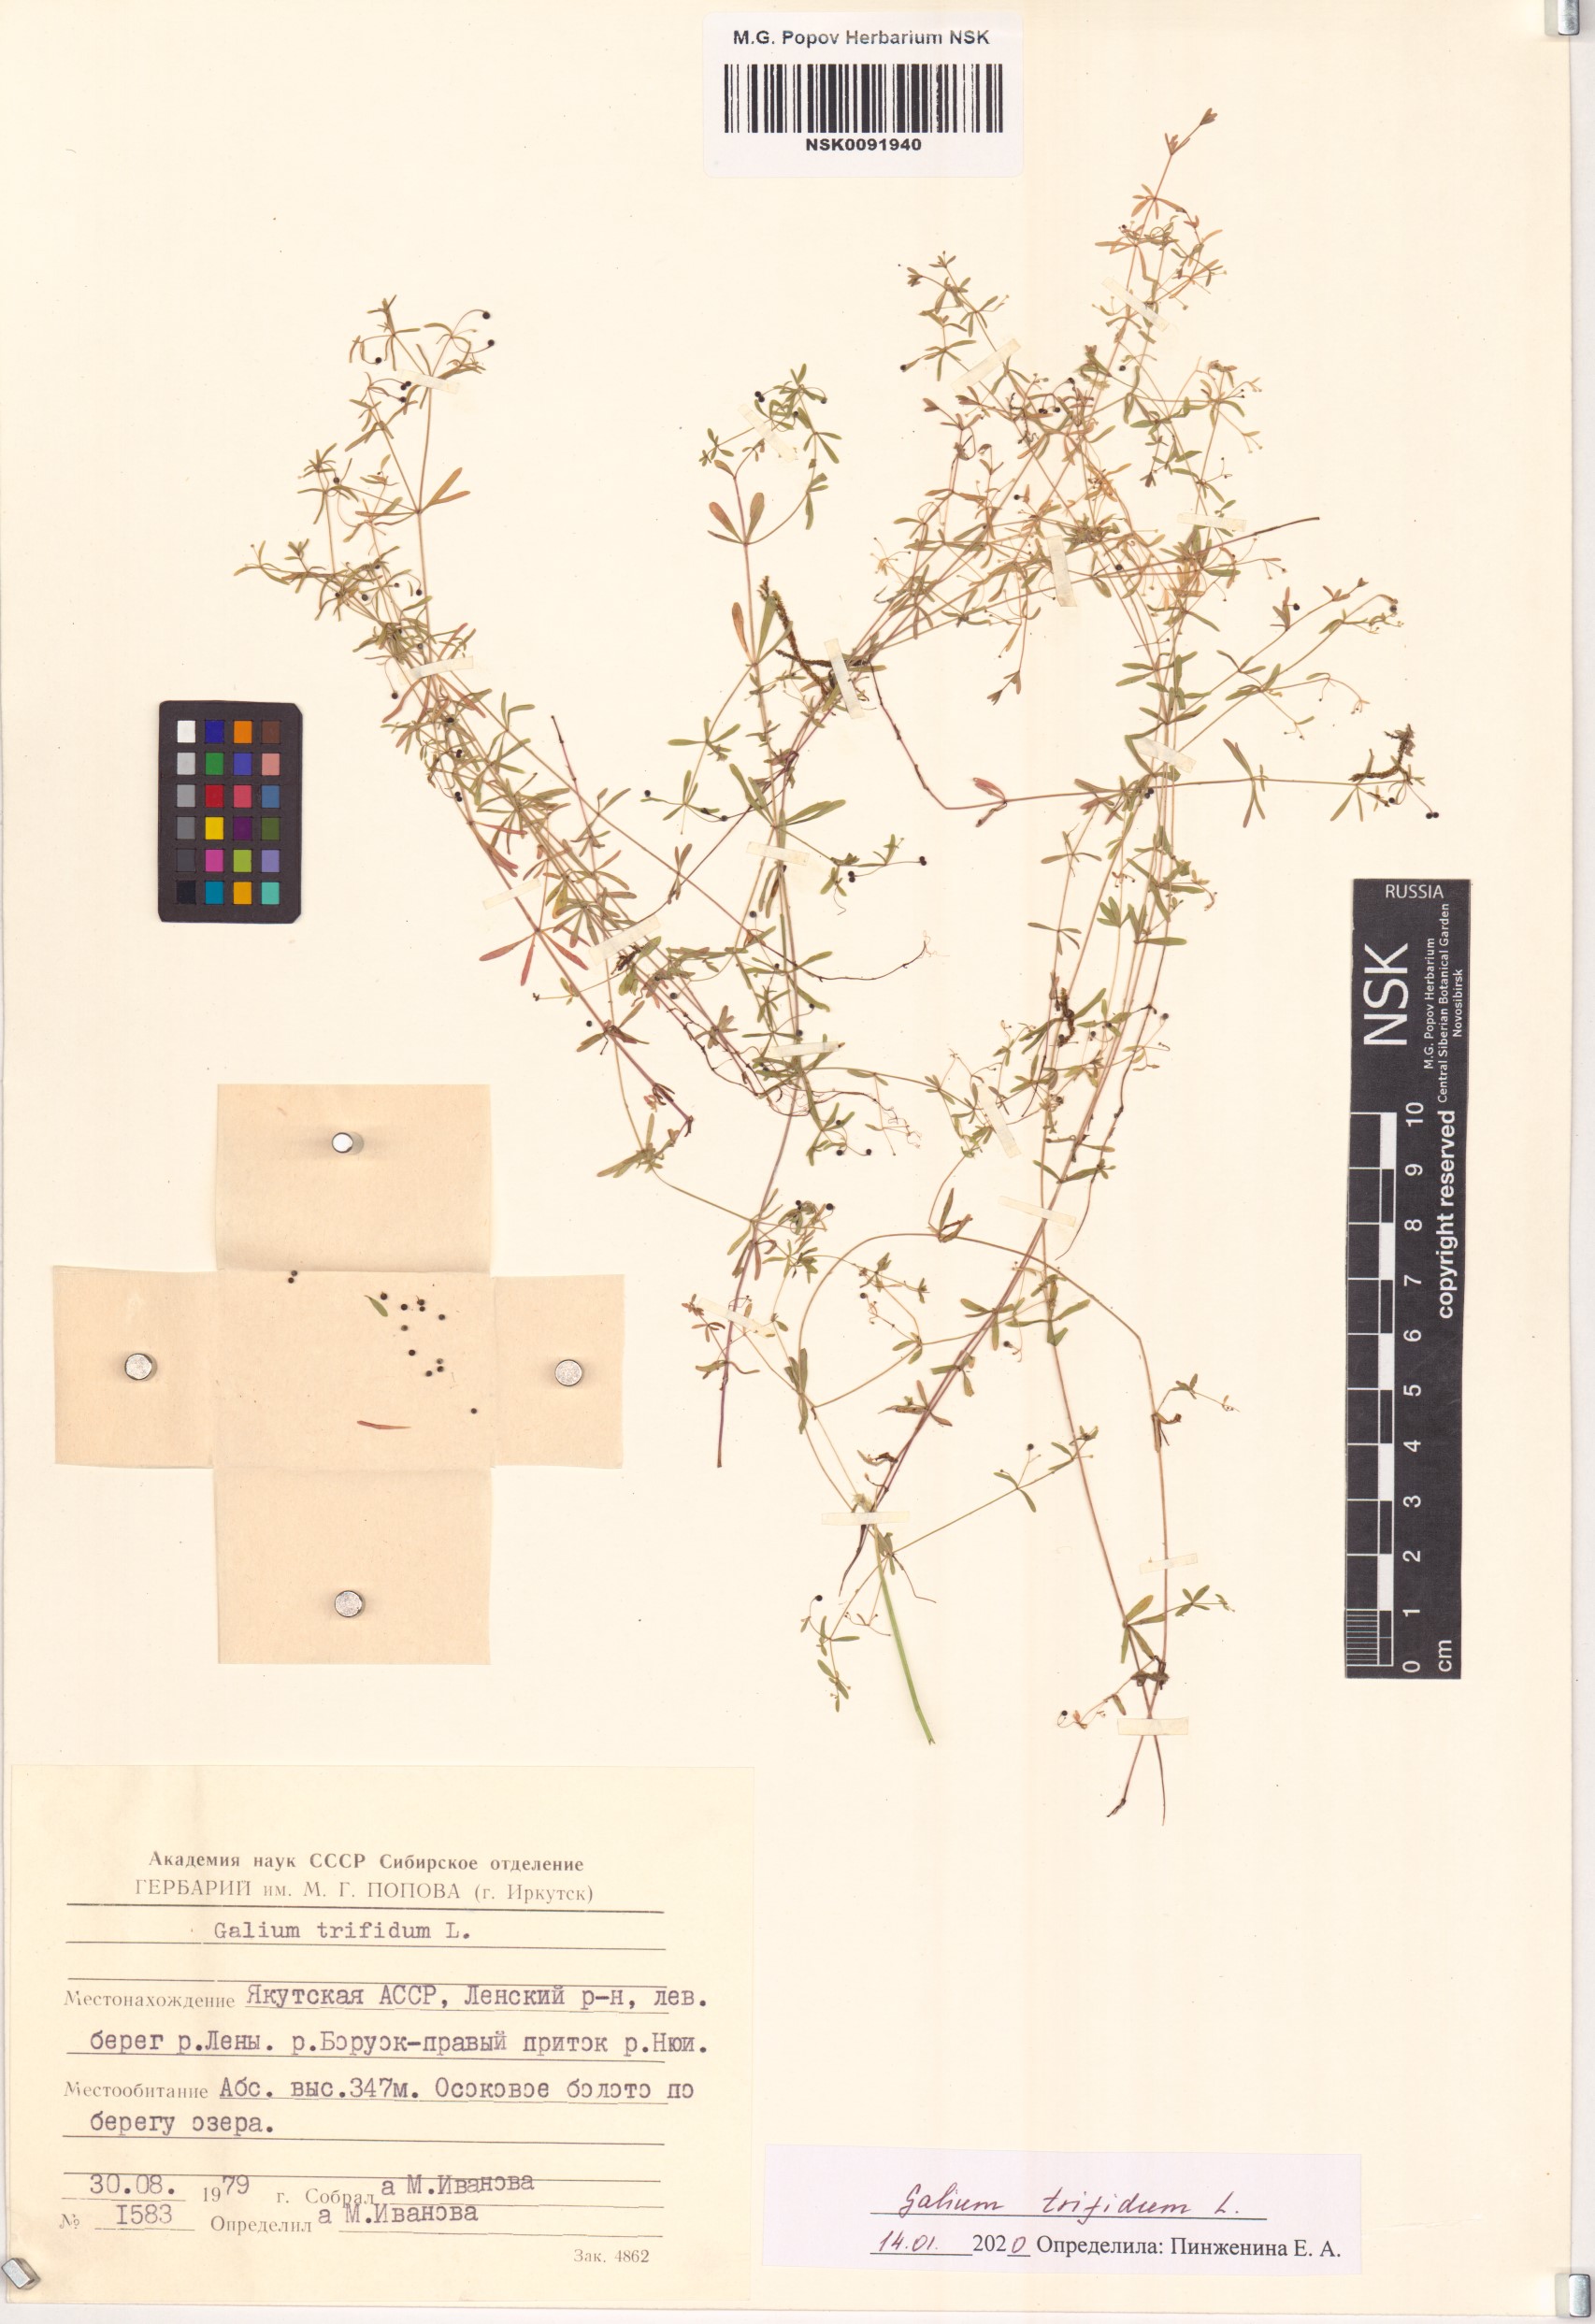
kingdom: Plantae
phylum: Tracheophyta
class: Magnoliopsida
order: Gentianales
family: Rubiaceae
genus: Galium
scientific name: Galium trifidum
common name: Small bedstraw
